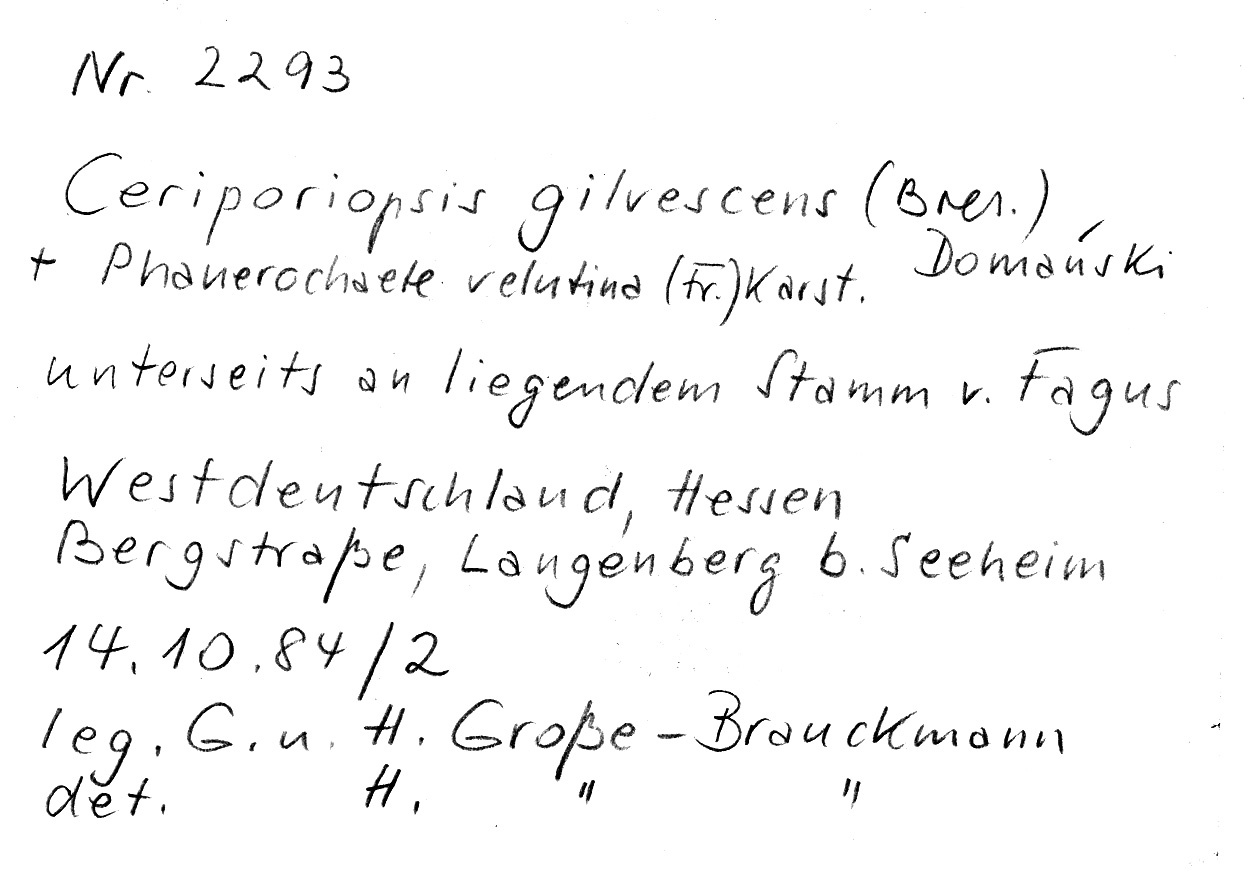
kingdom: Plantae
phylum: Tracheophyta
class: Magnoliopsida
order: Fagales
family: Fagaceae
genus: Fagus
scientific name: Fagus sylvatica
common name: Beech
